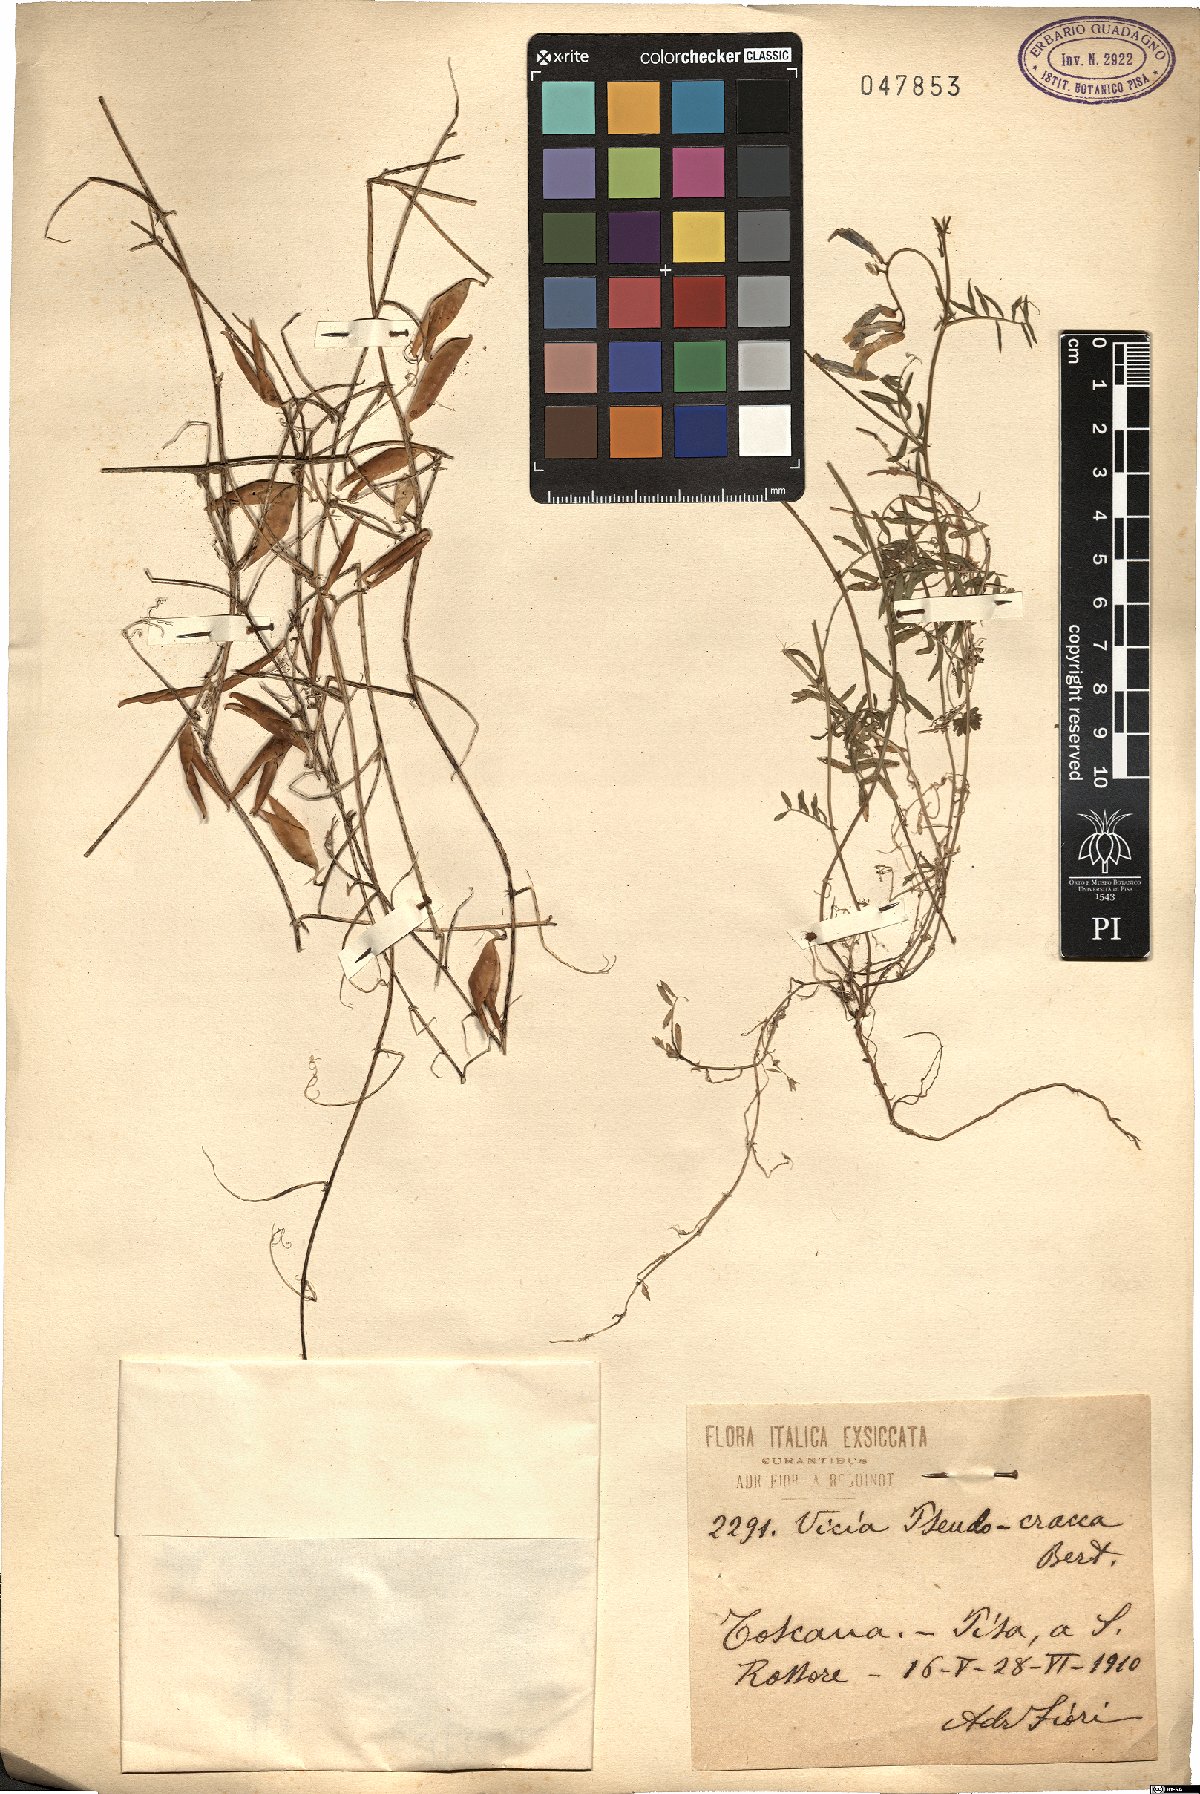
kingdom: Plantae
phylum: Tracheophyta
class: Magnoliopsida
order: Fabales
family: Fabaceae
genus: Vicia
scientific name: Vicia villosa
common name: Fodder vetch
